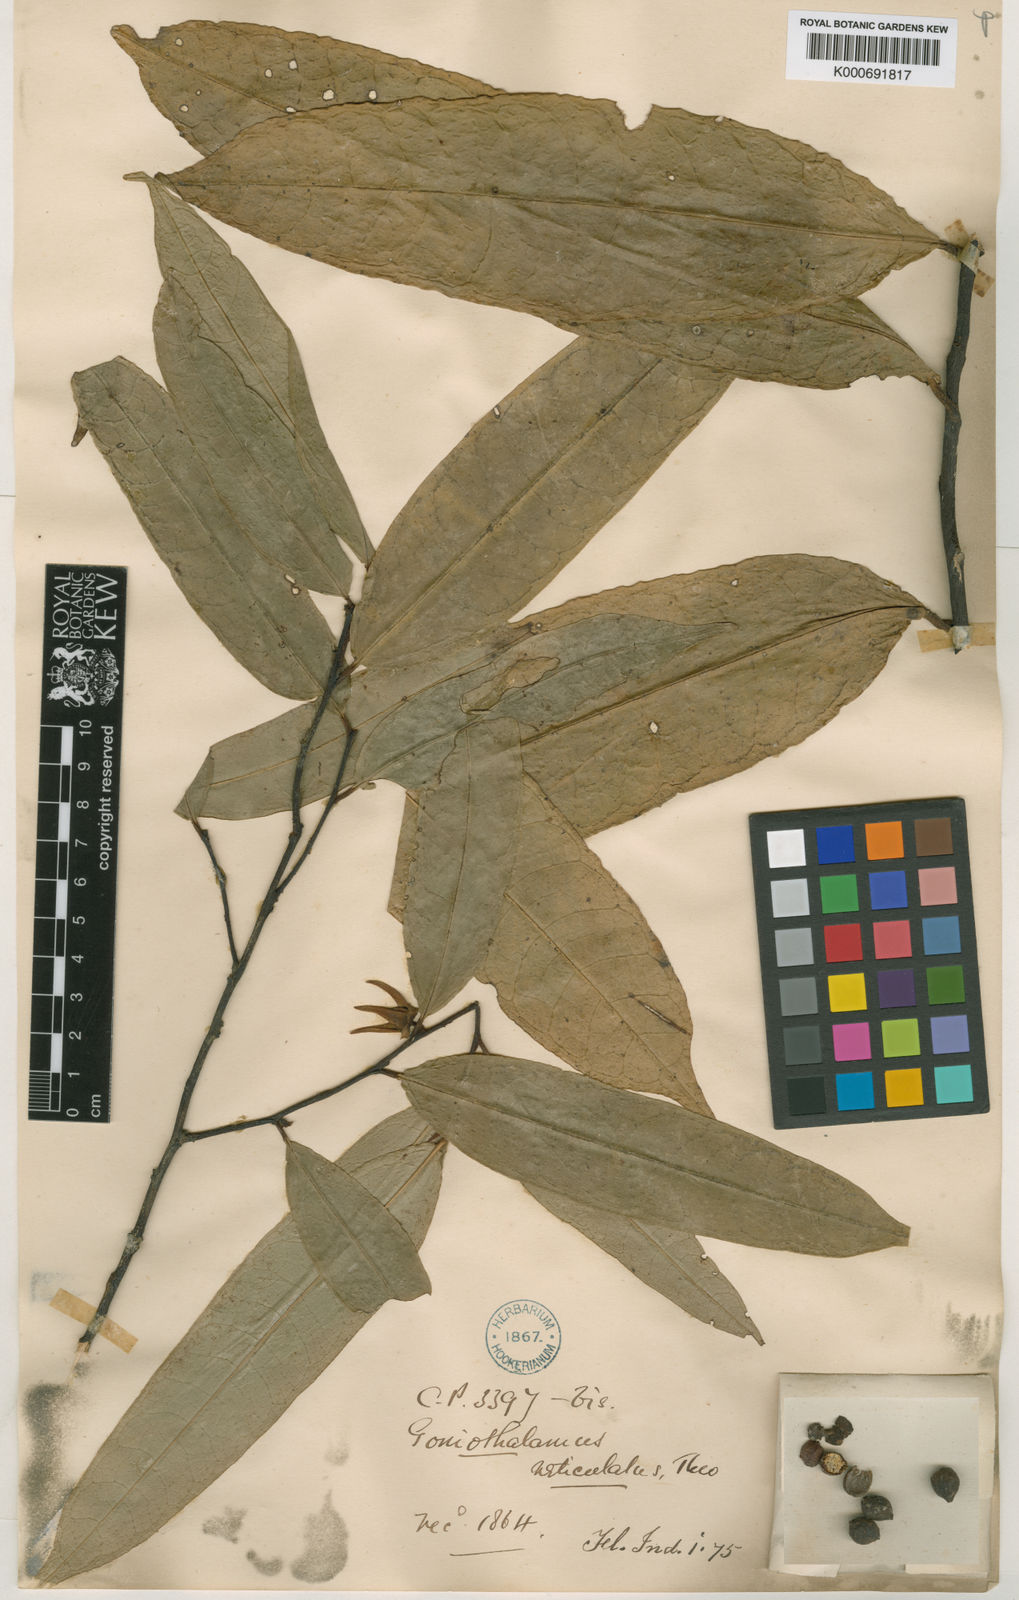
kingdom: Plantae
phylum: Tracheophyta
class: Magnoliopsida
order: Magnoliales
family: Annonaceae
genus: Goniothalamus
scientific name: Goniothalamus reticulatus
